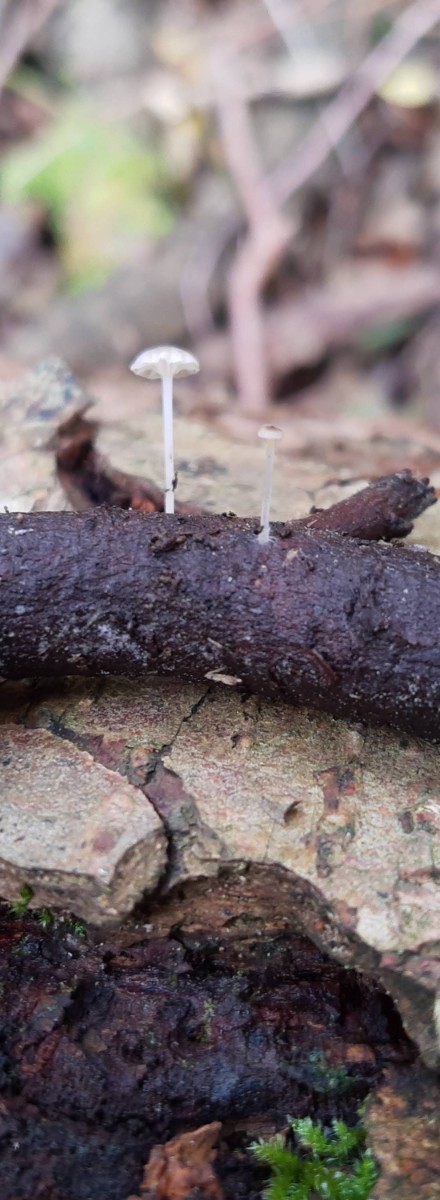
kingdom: Fungi
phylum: Basidiomycota
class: Agaricomycetes
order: Agaricales
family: Porotheleaceae
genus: Phloeomana
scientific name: Phloeomana speirea
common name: kvist-huesvamp
